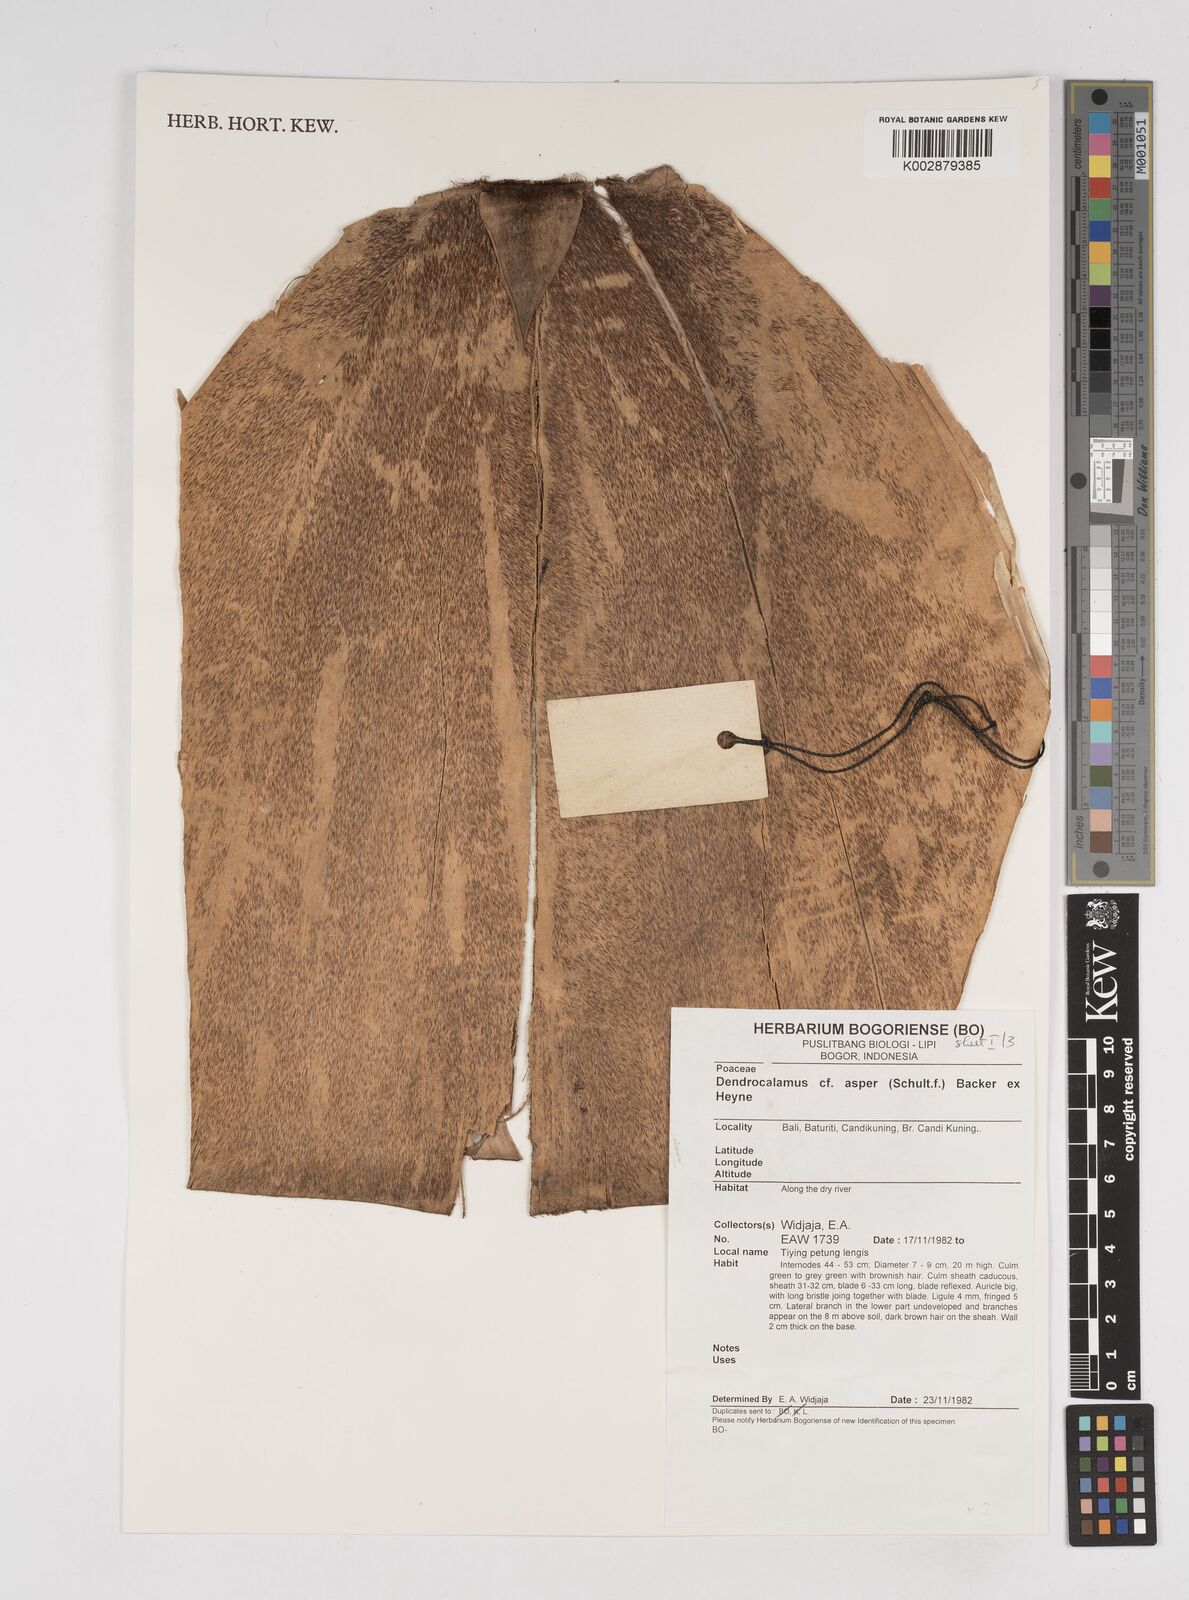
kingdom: Plantae
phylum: Tracheophyta
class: Liliopsida
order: Poales
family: Poaceae
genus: Dendrocalamus
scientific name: Dendrocalamus asper
